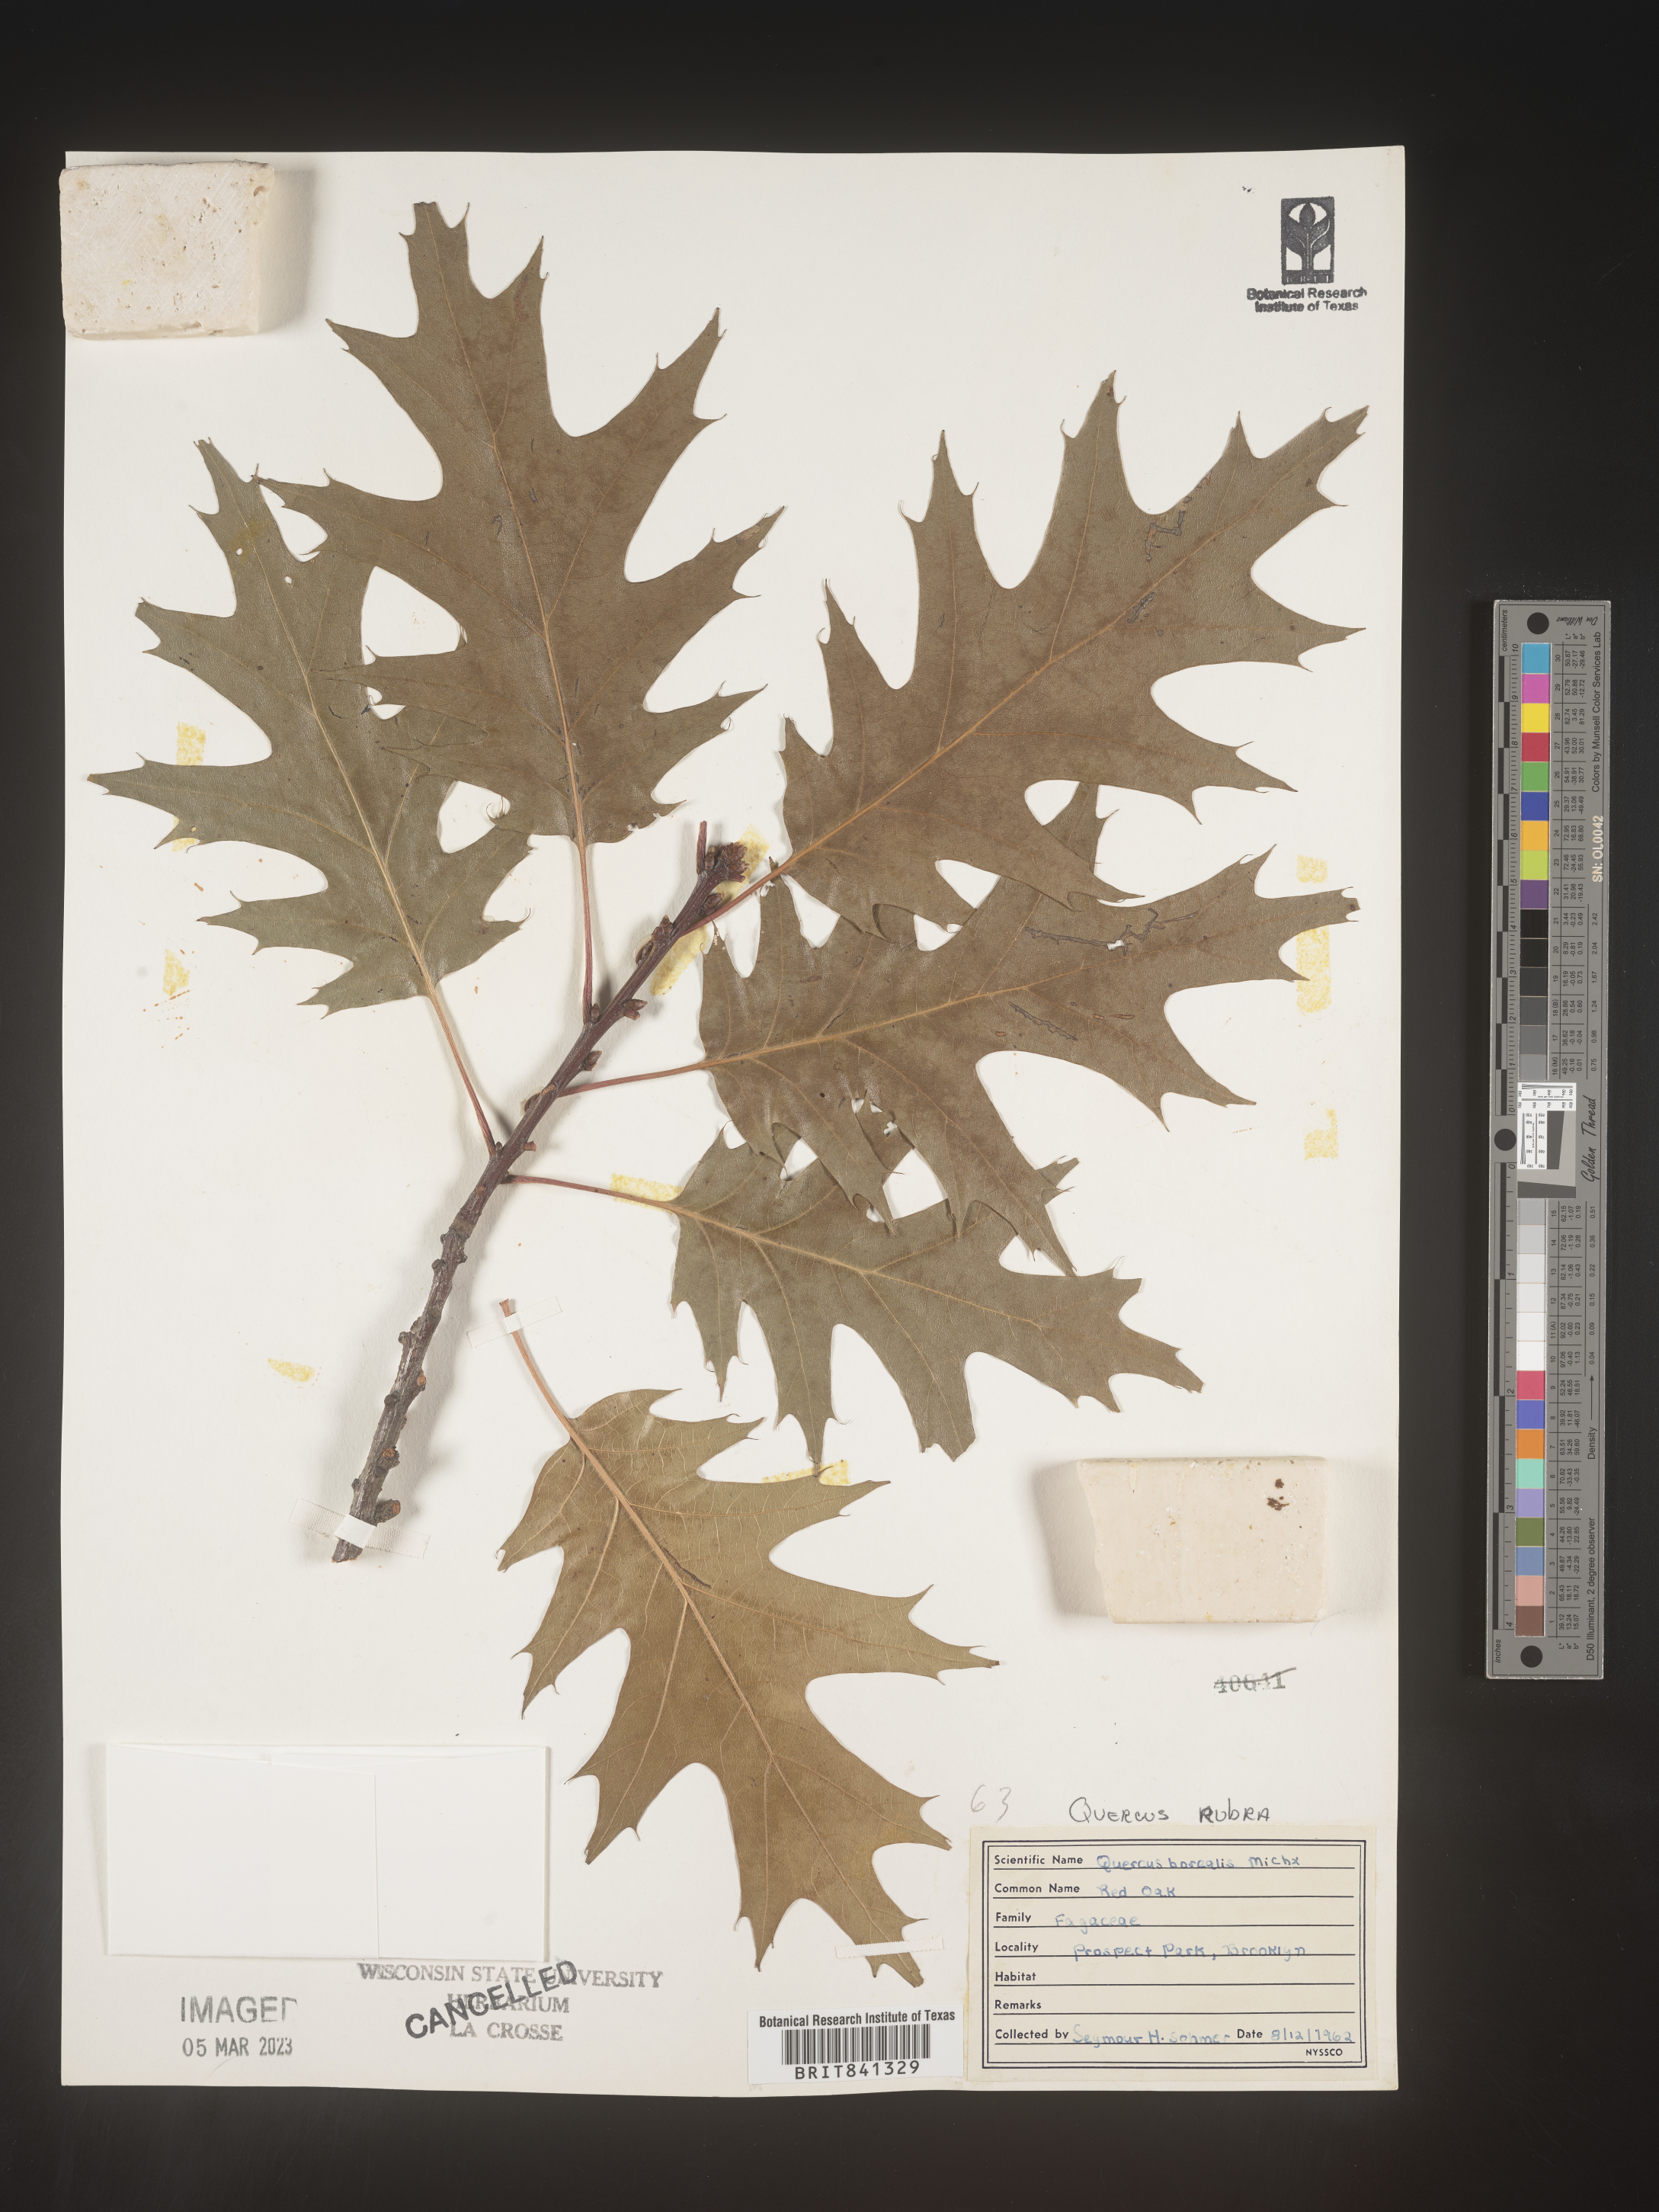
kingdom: Plantae
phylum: Tracheophyta
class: Magnoliopsida
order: Fagales
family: Fagaceae
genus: Quercus
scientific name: Quercus rubra
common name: Red oak
